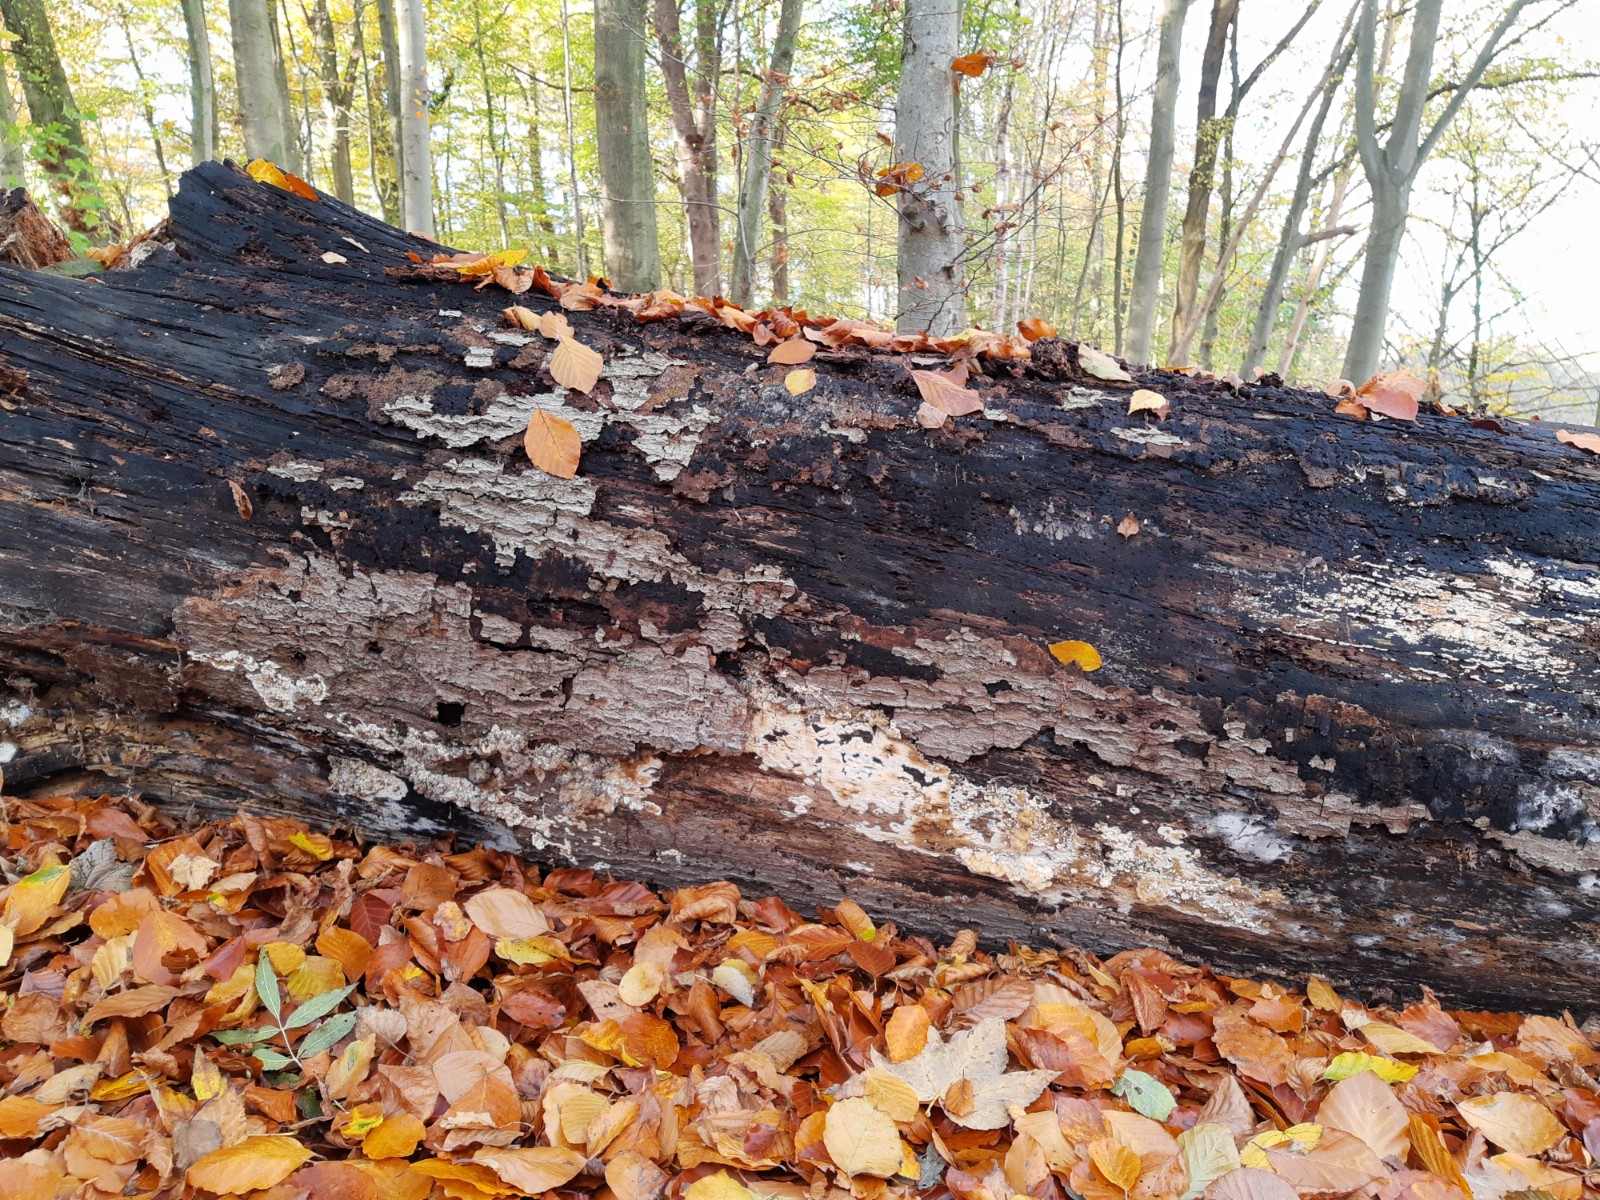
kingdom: Fungi
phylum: Basidiomycota
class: Agaricomycetes
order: Boletales
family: Coniophoraceae
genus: Coniophora
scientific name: Coniophora puteana
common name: gul tømmersvamp
